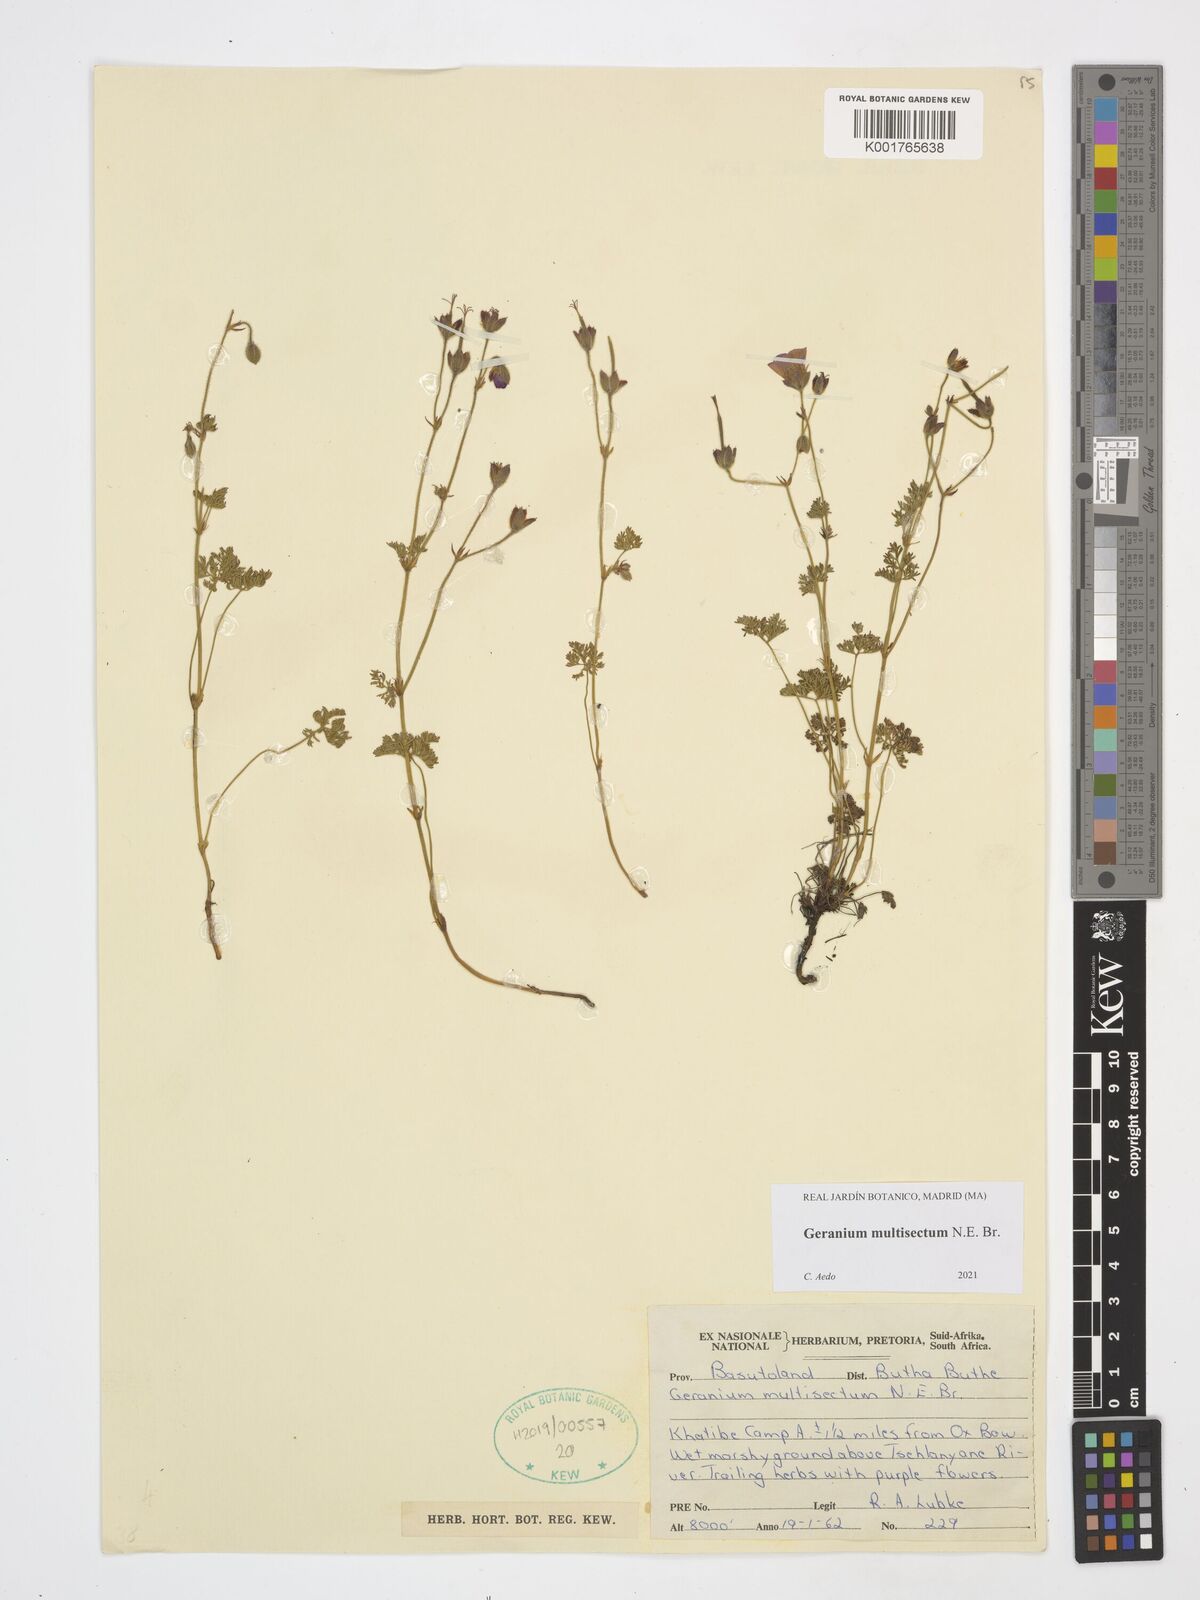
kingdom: Plantae
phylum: Tracheophyta
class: Magnoliopsida
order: Geraniales
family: Geraniaceae
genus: Geranium
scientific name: Geranium multisectum
